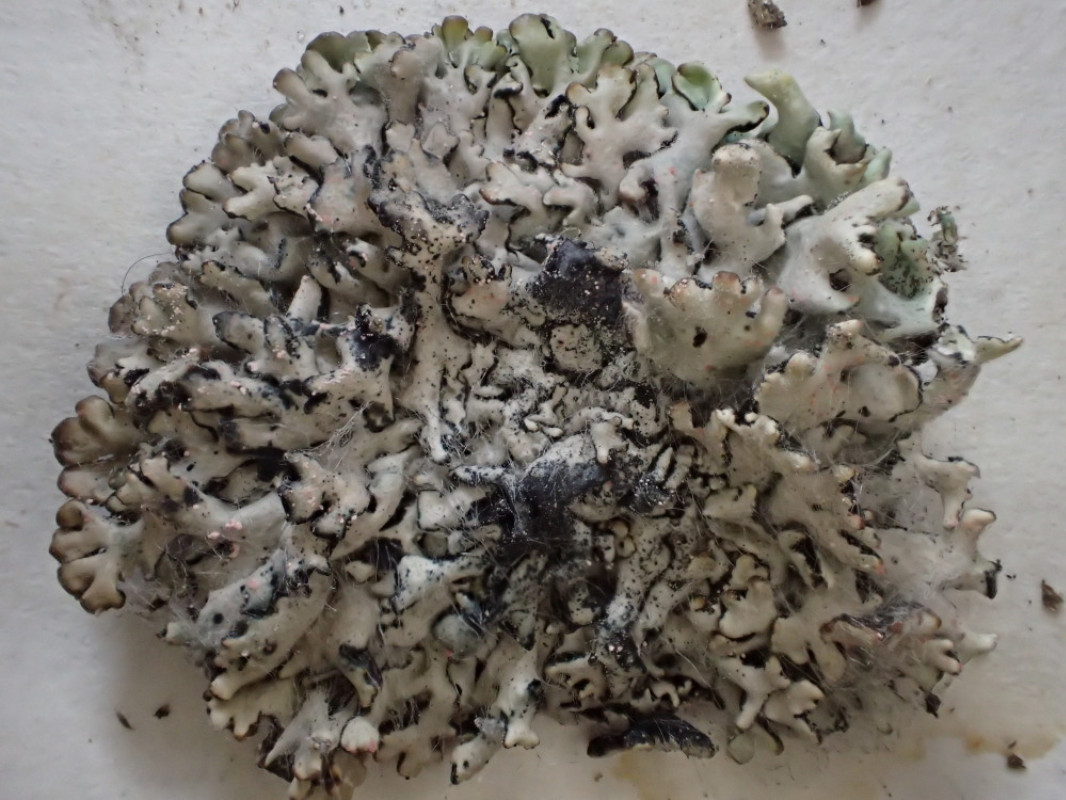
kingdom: Fungi
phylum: Ascomycota
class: Lecanoromycetes
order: Lecanorales
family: Parmeliaceae
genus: Hypogymnia
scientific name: Hypogymnia physodes
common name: almindelig kvistlav
